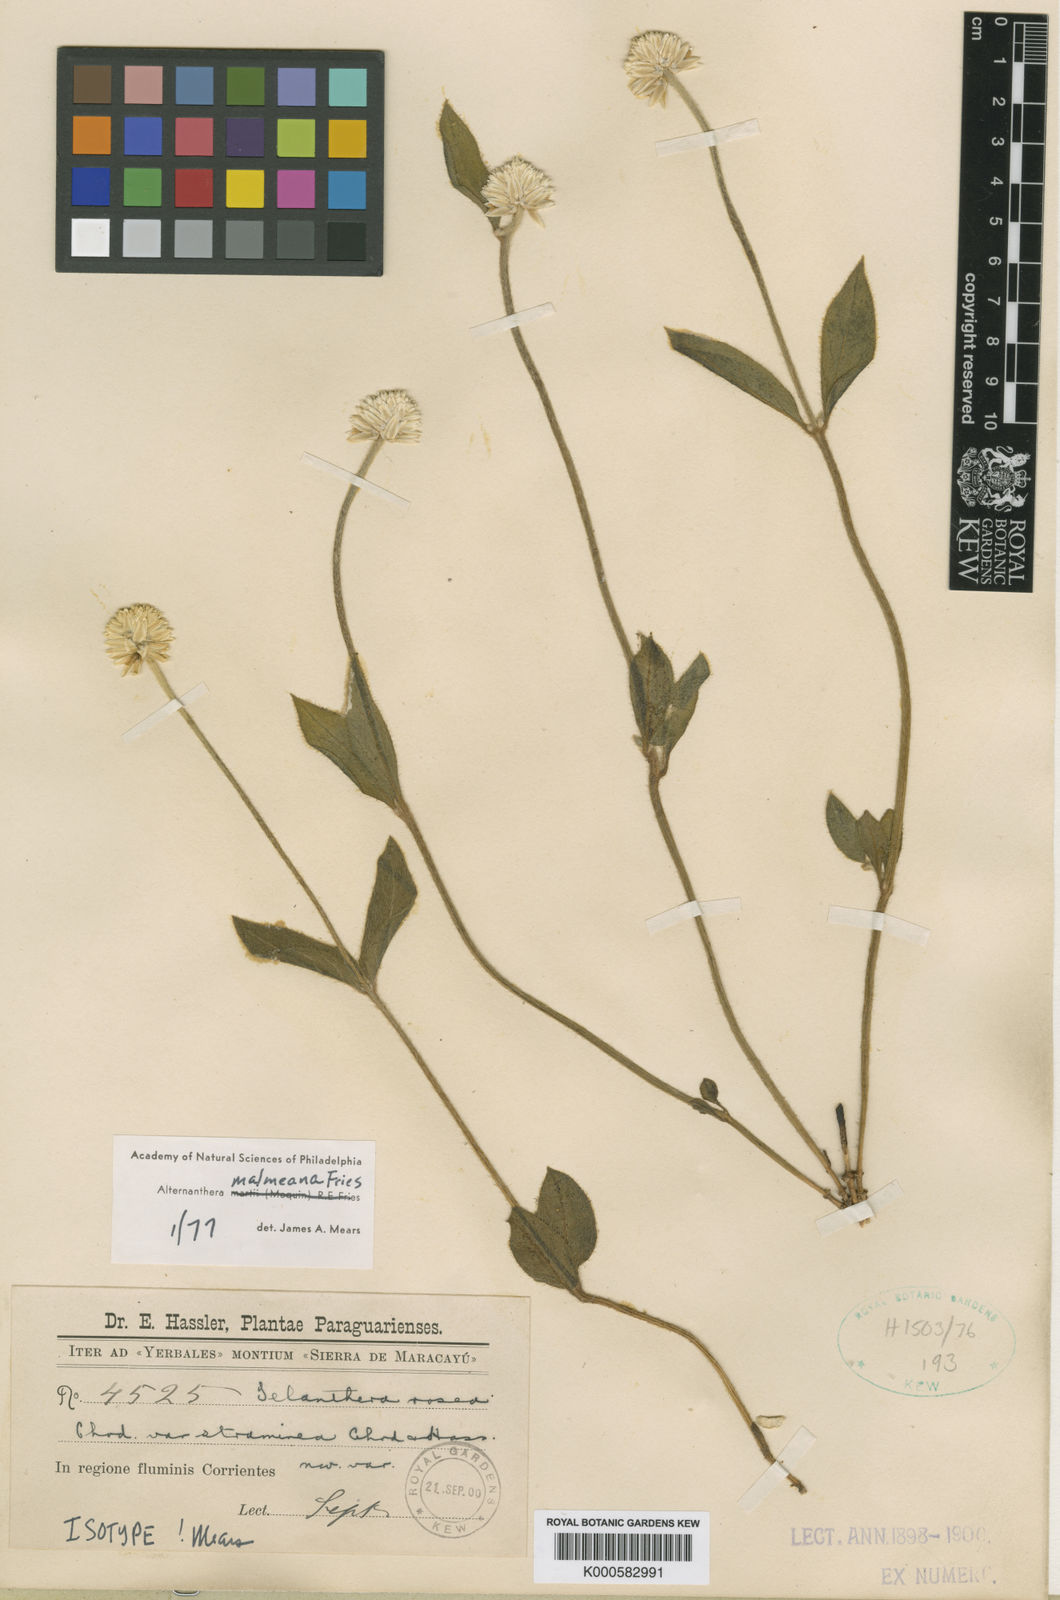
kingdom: Plantae
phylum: Tracheophyta
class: Magnoliopsida
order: Caryophyllales
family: Amaranthaceae
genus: Alternanthera
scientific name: Alternanthera malmeana
